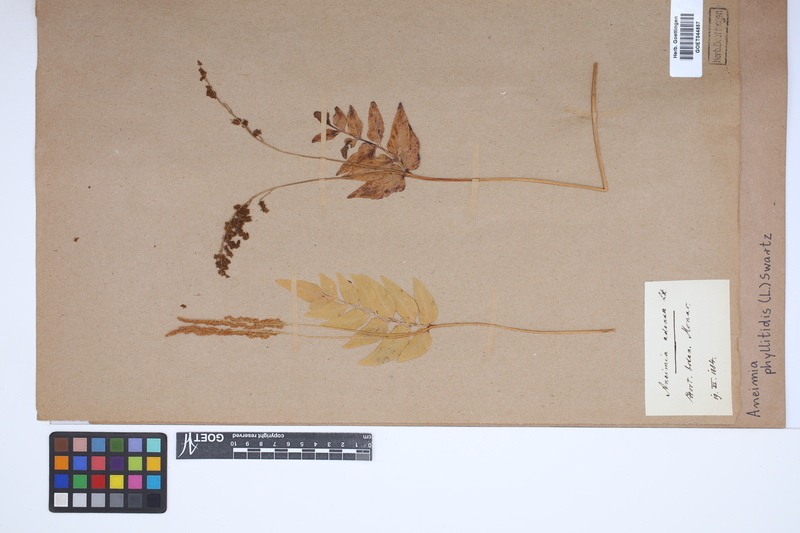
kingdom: Plantae
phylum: Tracheophyta
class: Polypodiopsida
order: Schizaeales
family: Anemiaceae
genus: Anemia
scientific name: Anemia phyllitidis
